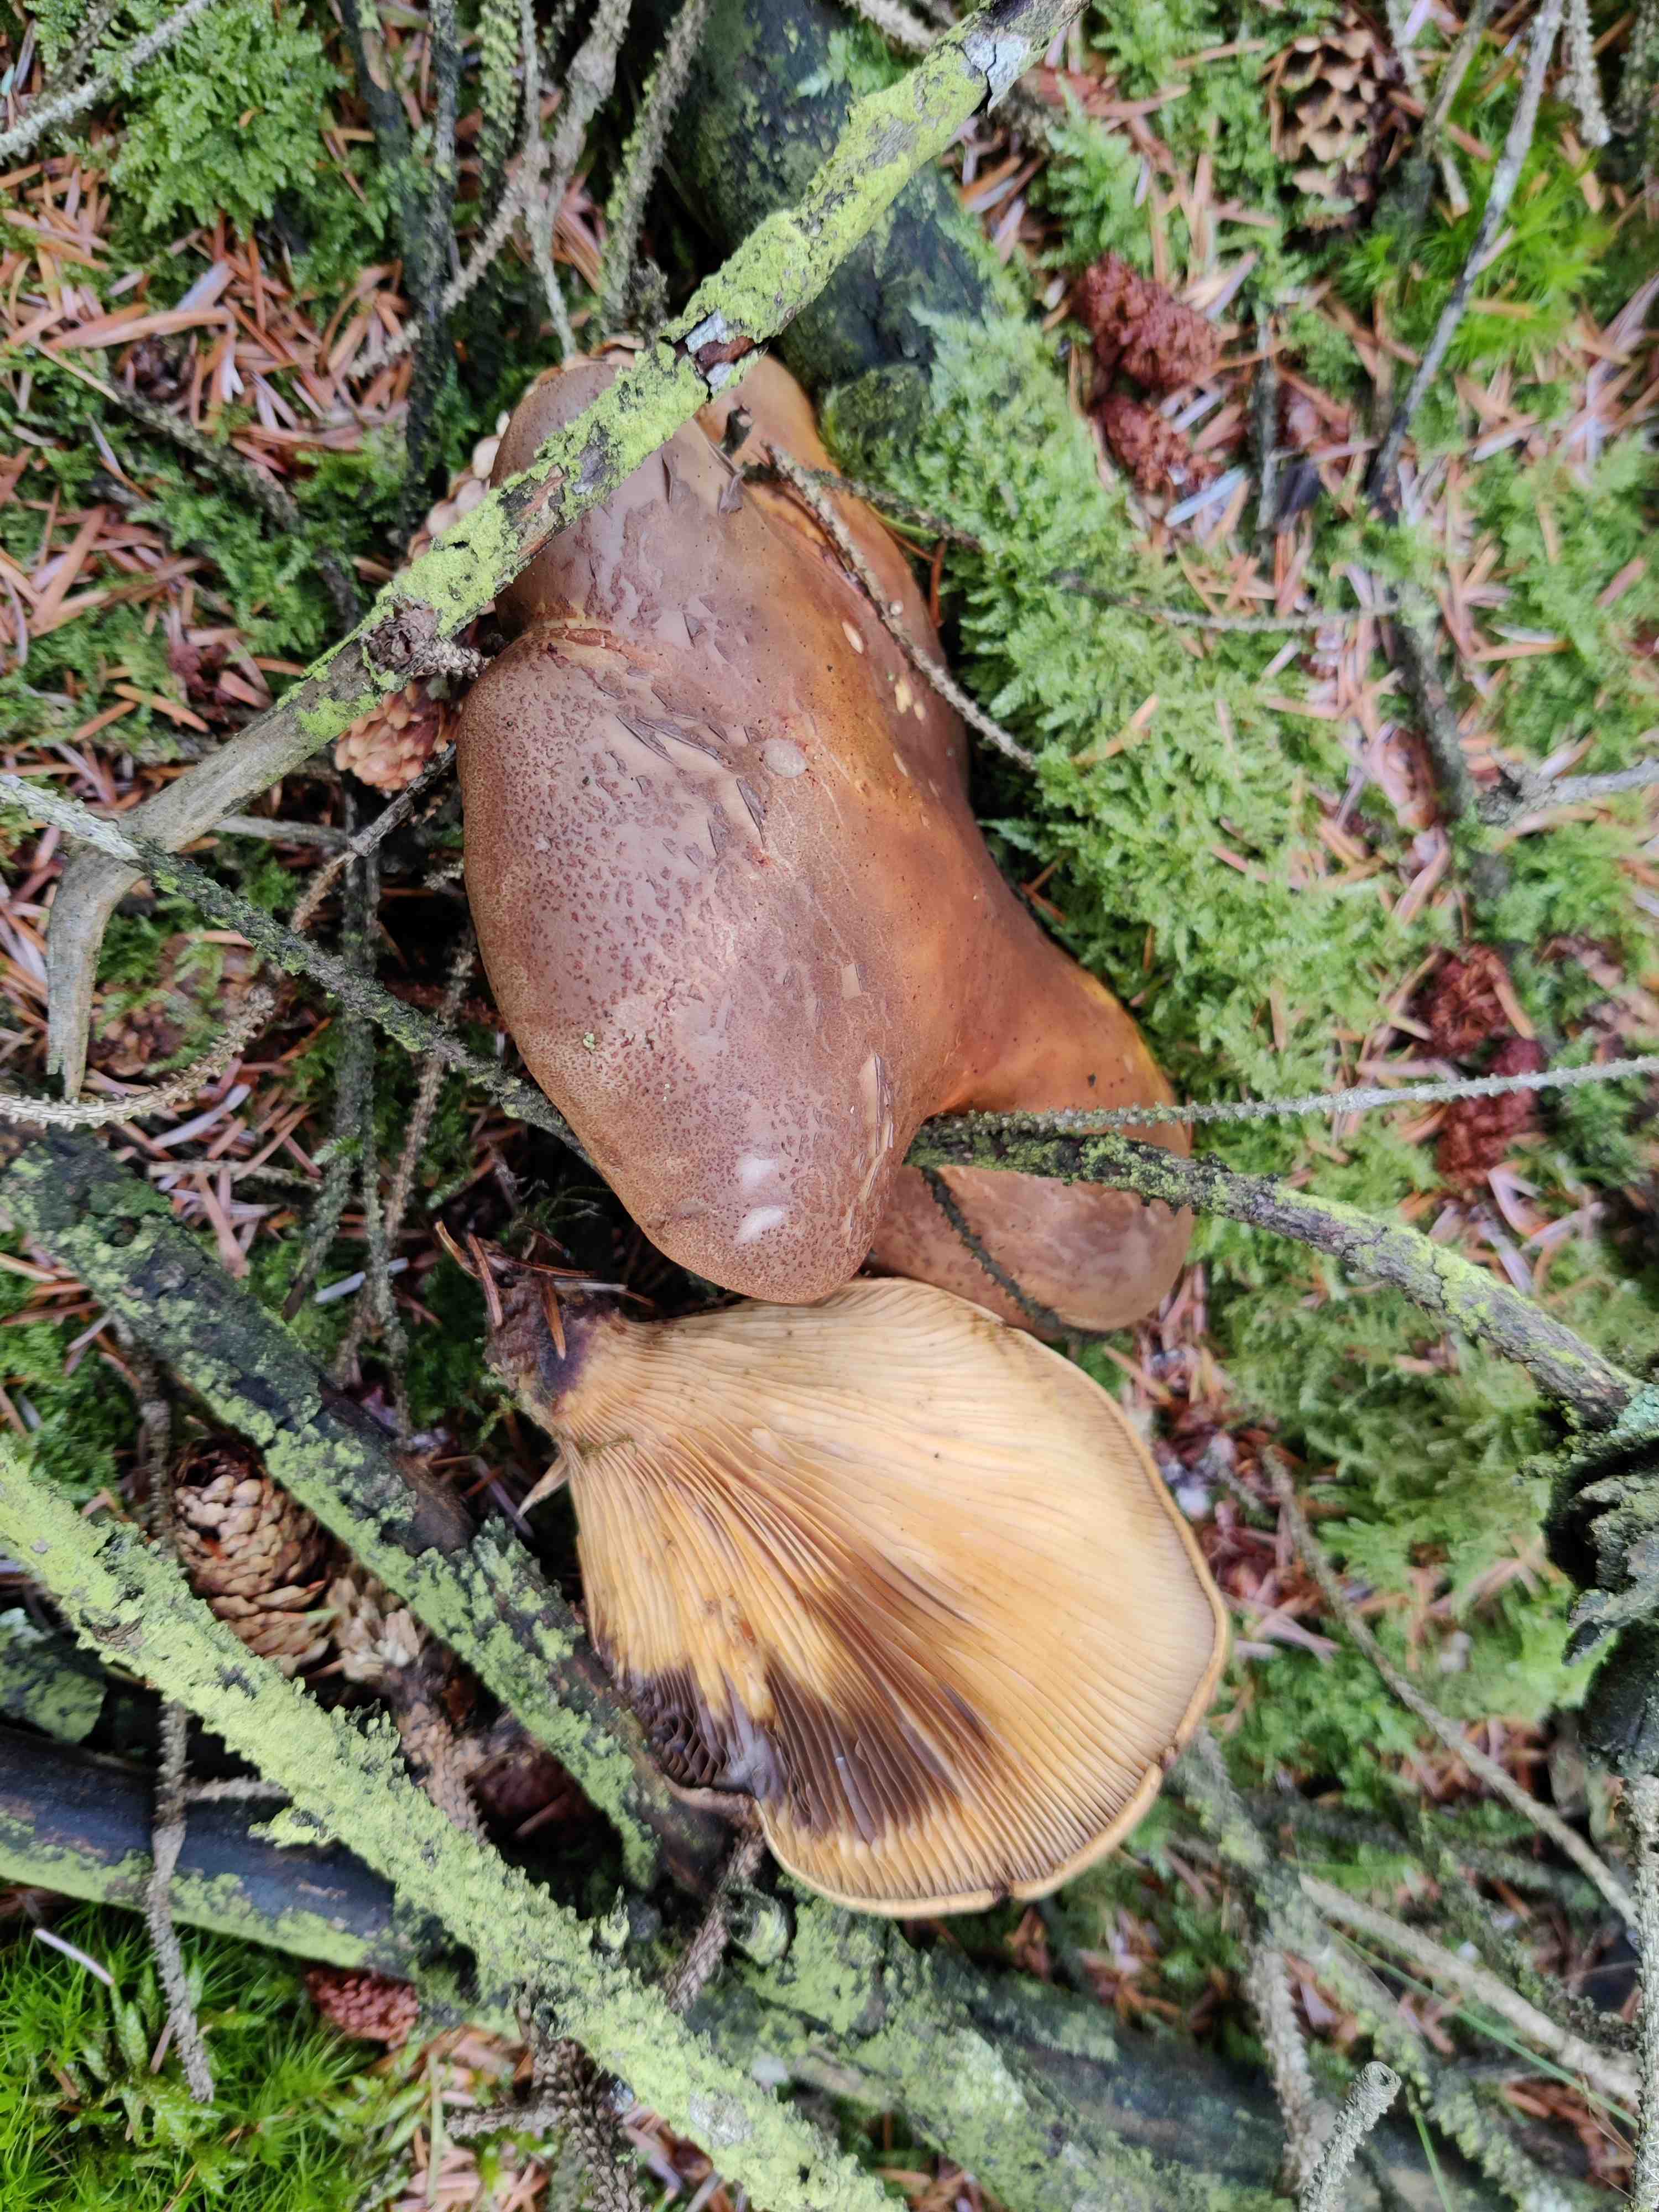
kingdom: Fungi
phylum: Basidiomycota
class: Agaricomycetes
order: Boletales
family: Tapinellaceae
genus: Tapinella
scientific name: Tapinella atrotomentosa
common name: sortfiltet viftesvamp
